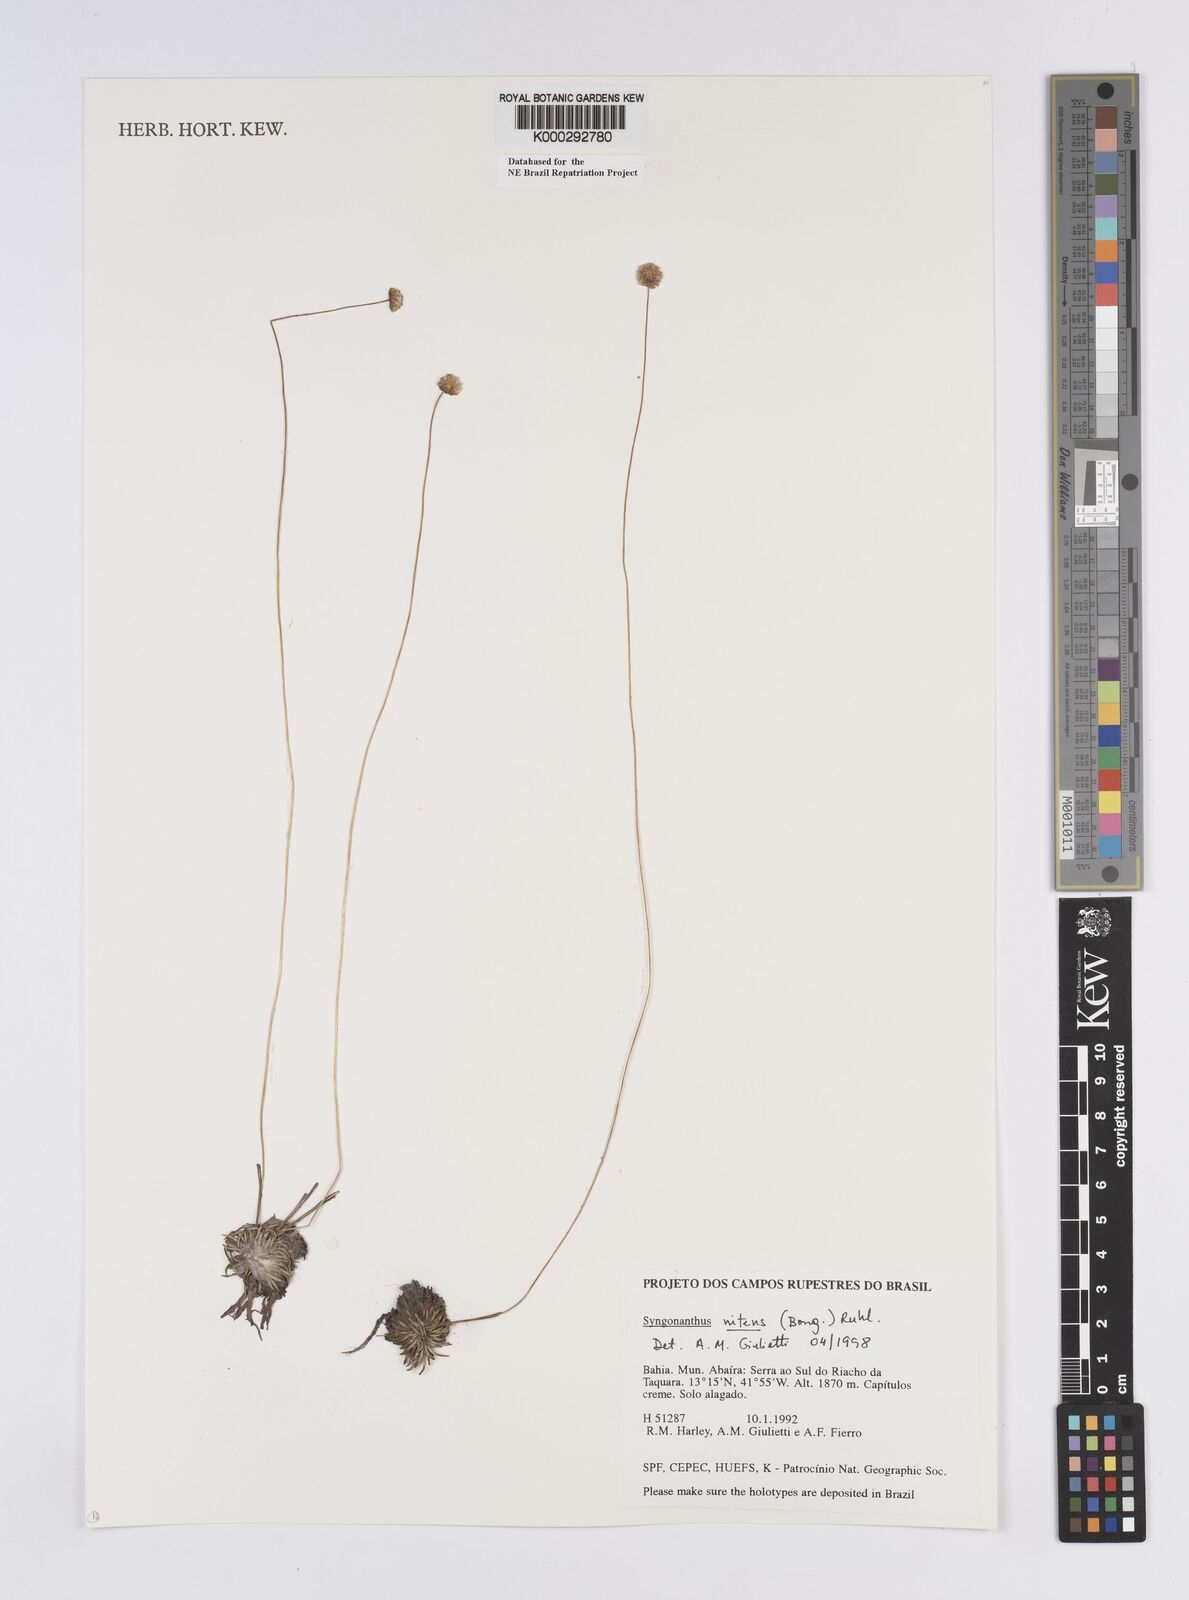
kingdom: Plantae
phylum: Tracheophyta
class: Liliopsida
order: Poales
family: Eriocaulaceae
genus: Syngonanthus
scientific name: Syngonanthus
